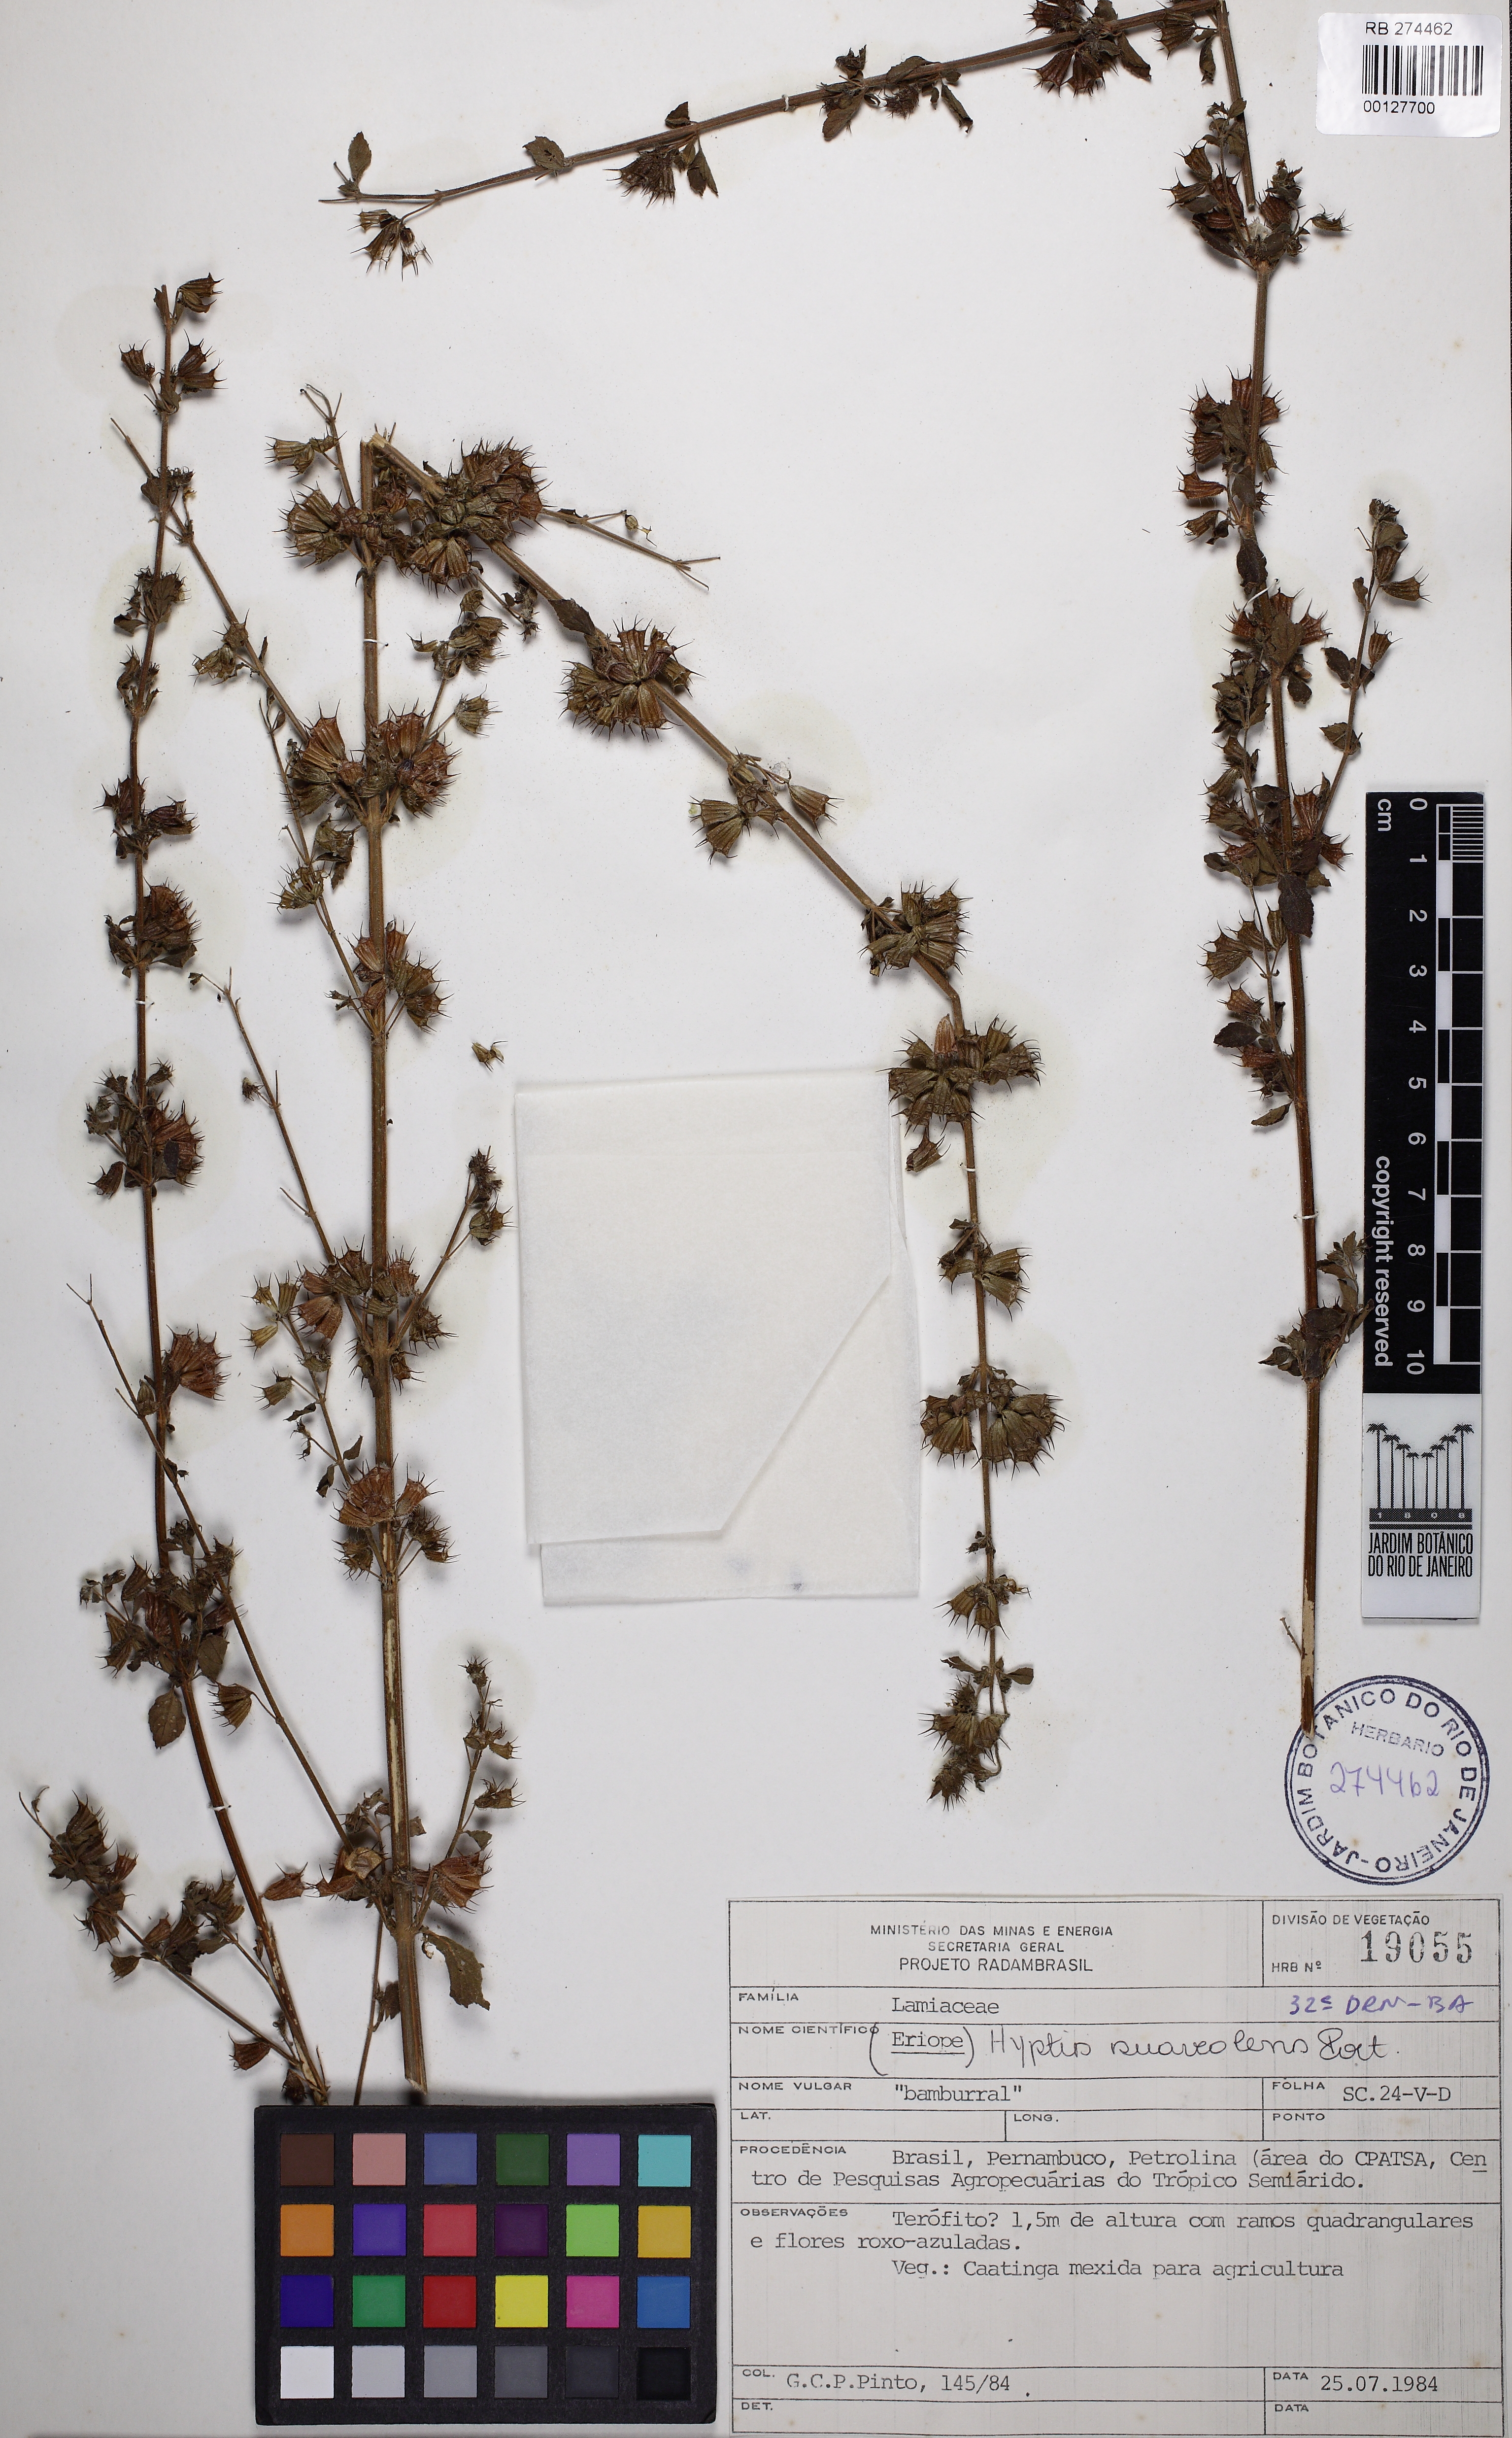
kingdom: Plantae
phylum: Tracheophyta
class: Magnoliopsida
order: Lamiales
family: Lamiaceae
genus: Mesosphaerum
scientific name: Mesosphaerum suaveolens
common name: Pignut
